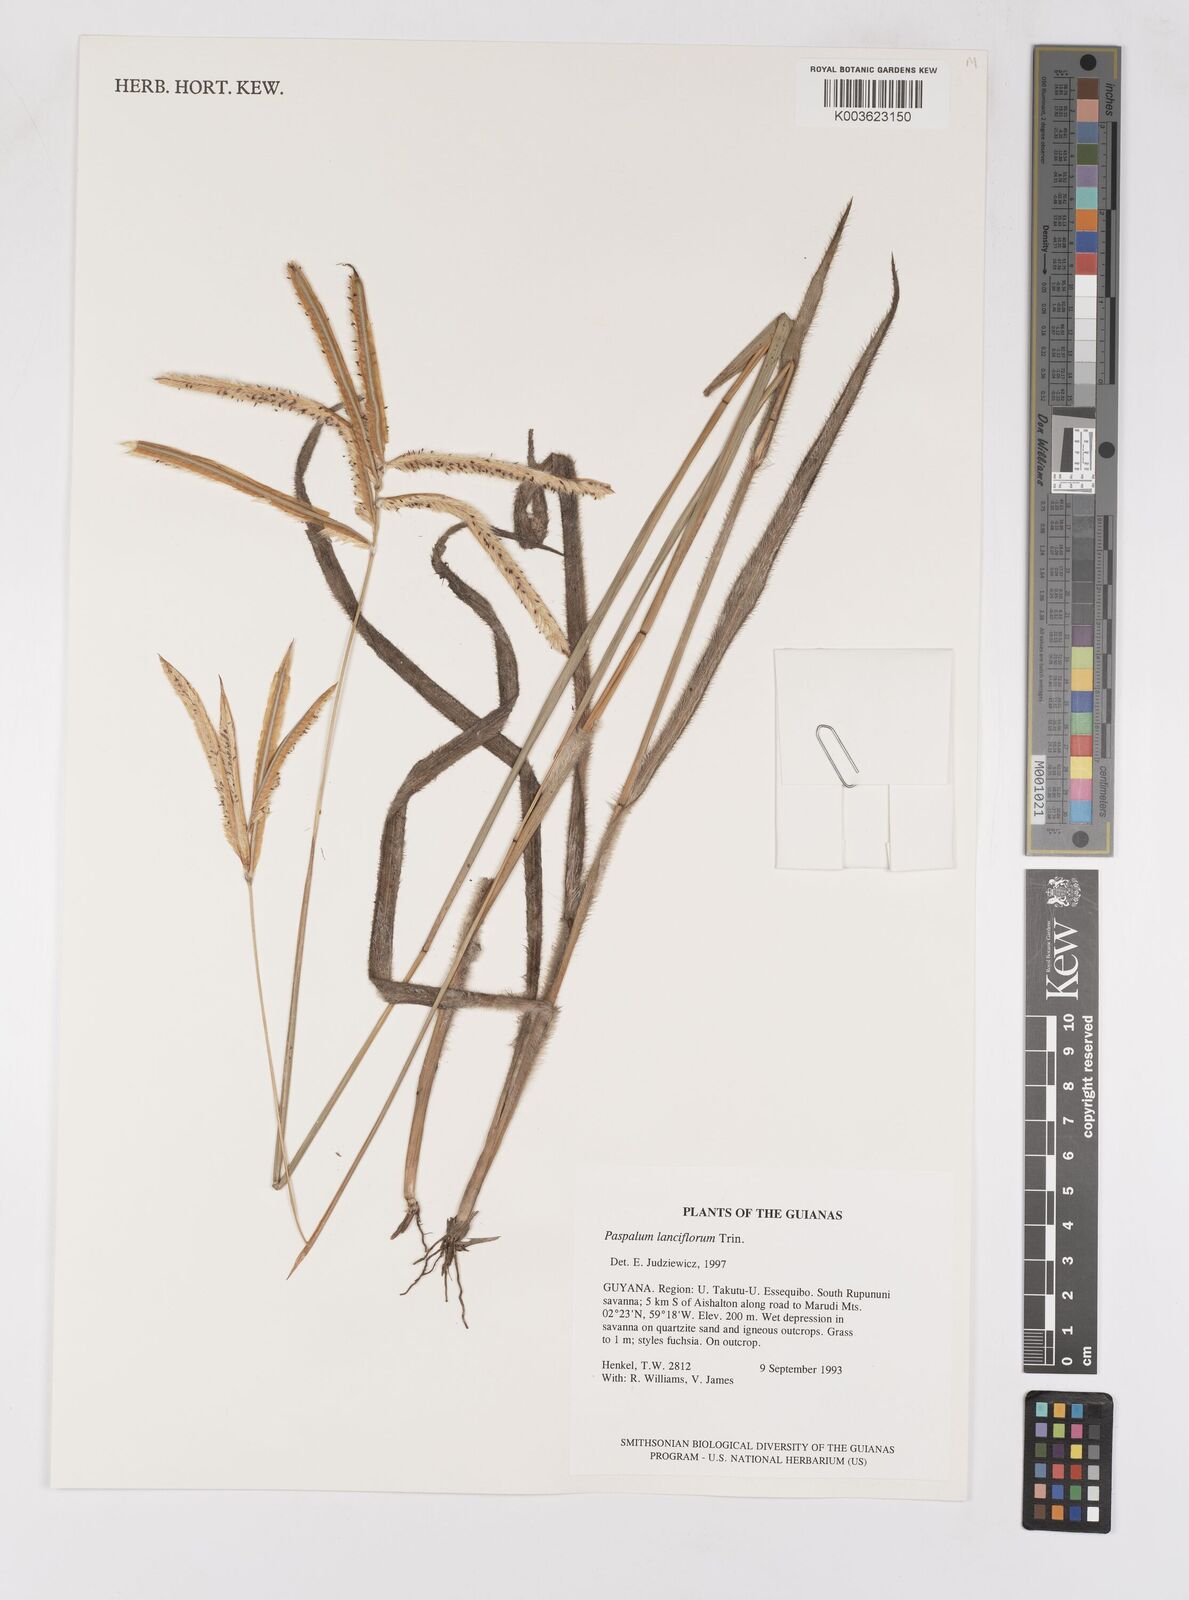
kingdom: Plantae
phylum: Tracheophyta
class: Liliopsida
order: Poales
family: Poaceae
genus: Paspalum
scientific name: Paspalum lanciflorum
